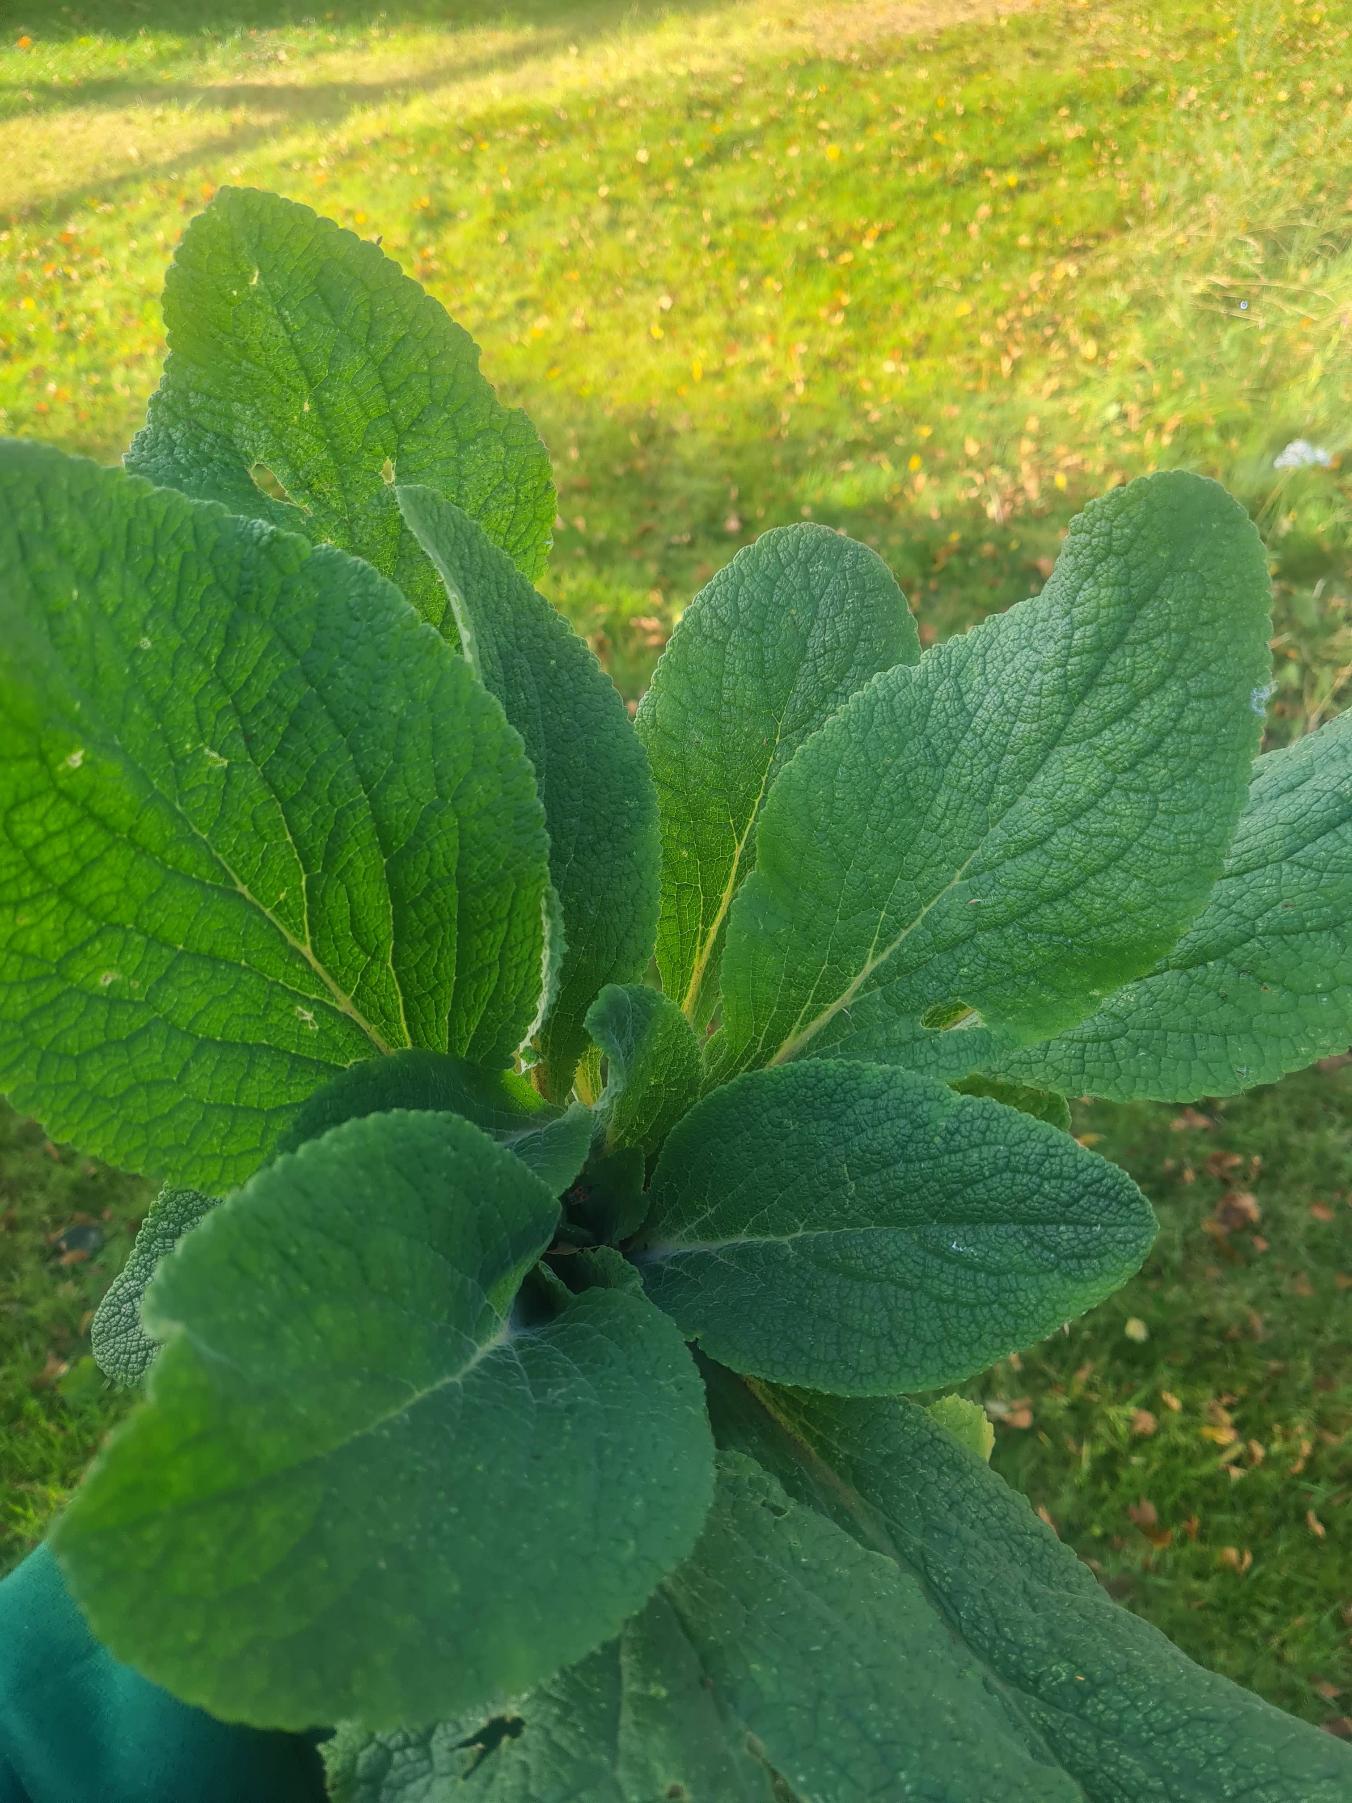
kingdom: Plantae
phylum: Tracheophyta
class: Magnoliopsida
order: Lamiales
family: Plantaginaceae
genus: Digitalis
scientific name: Digitalis purpurea
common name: Almindelig fingerbøl
